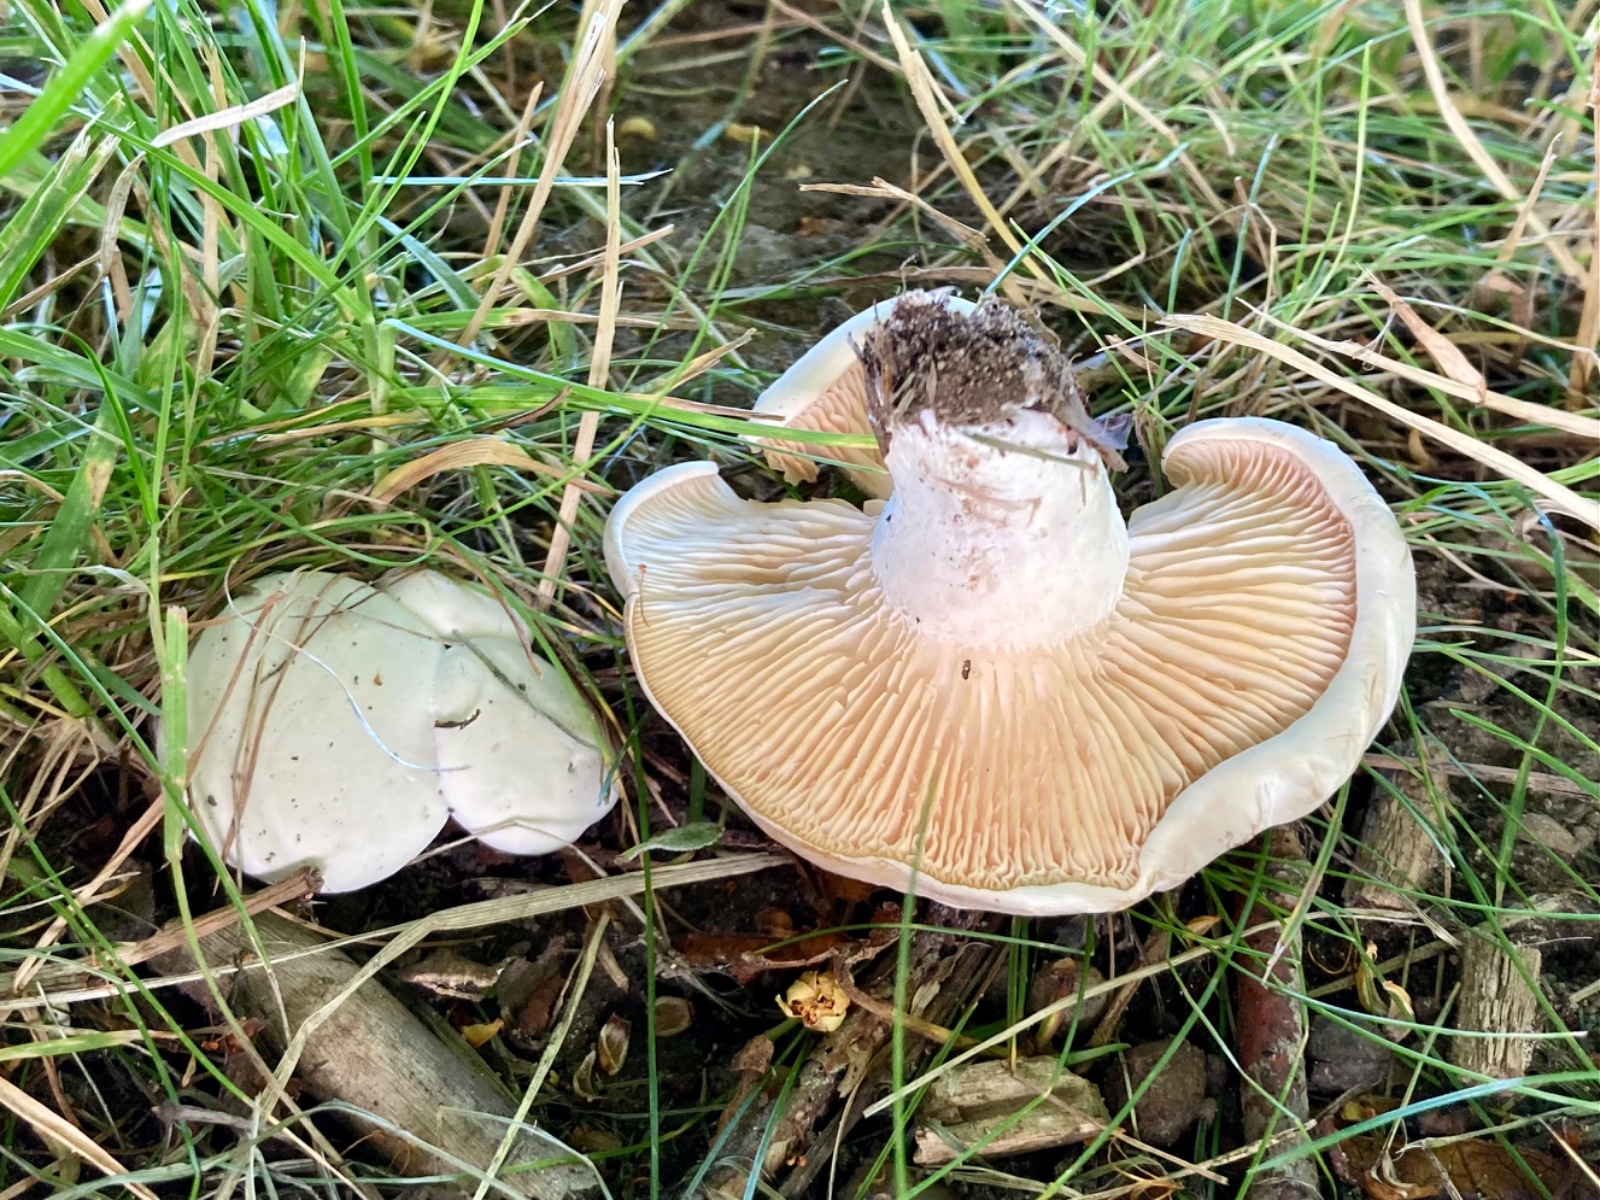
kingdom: Fungi
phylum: Basidiomycota
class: Agaricomycetes
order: Agaricales
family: Entolomataceae
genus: Clitopilus
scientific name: Clitopilus prunulus
